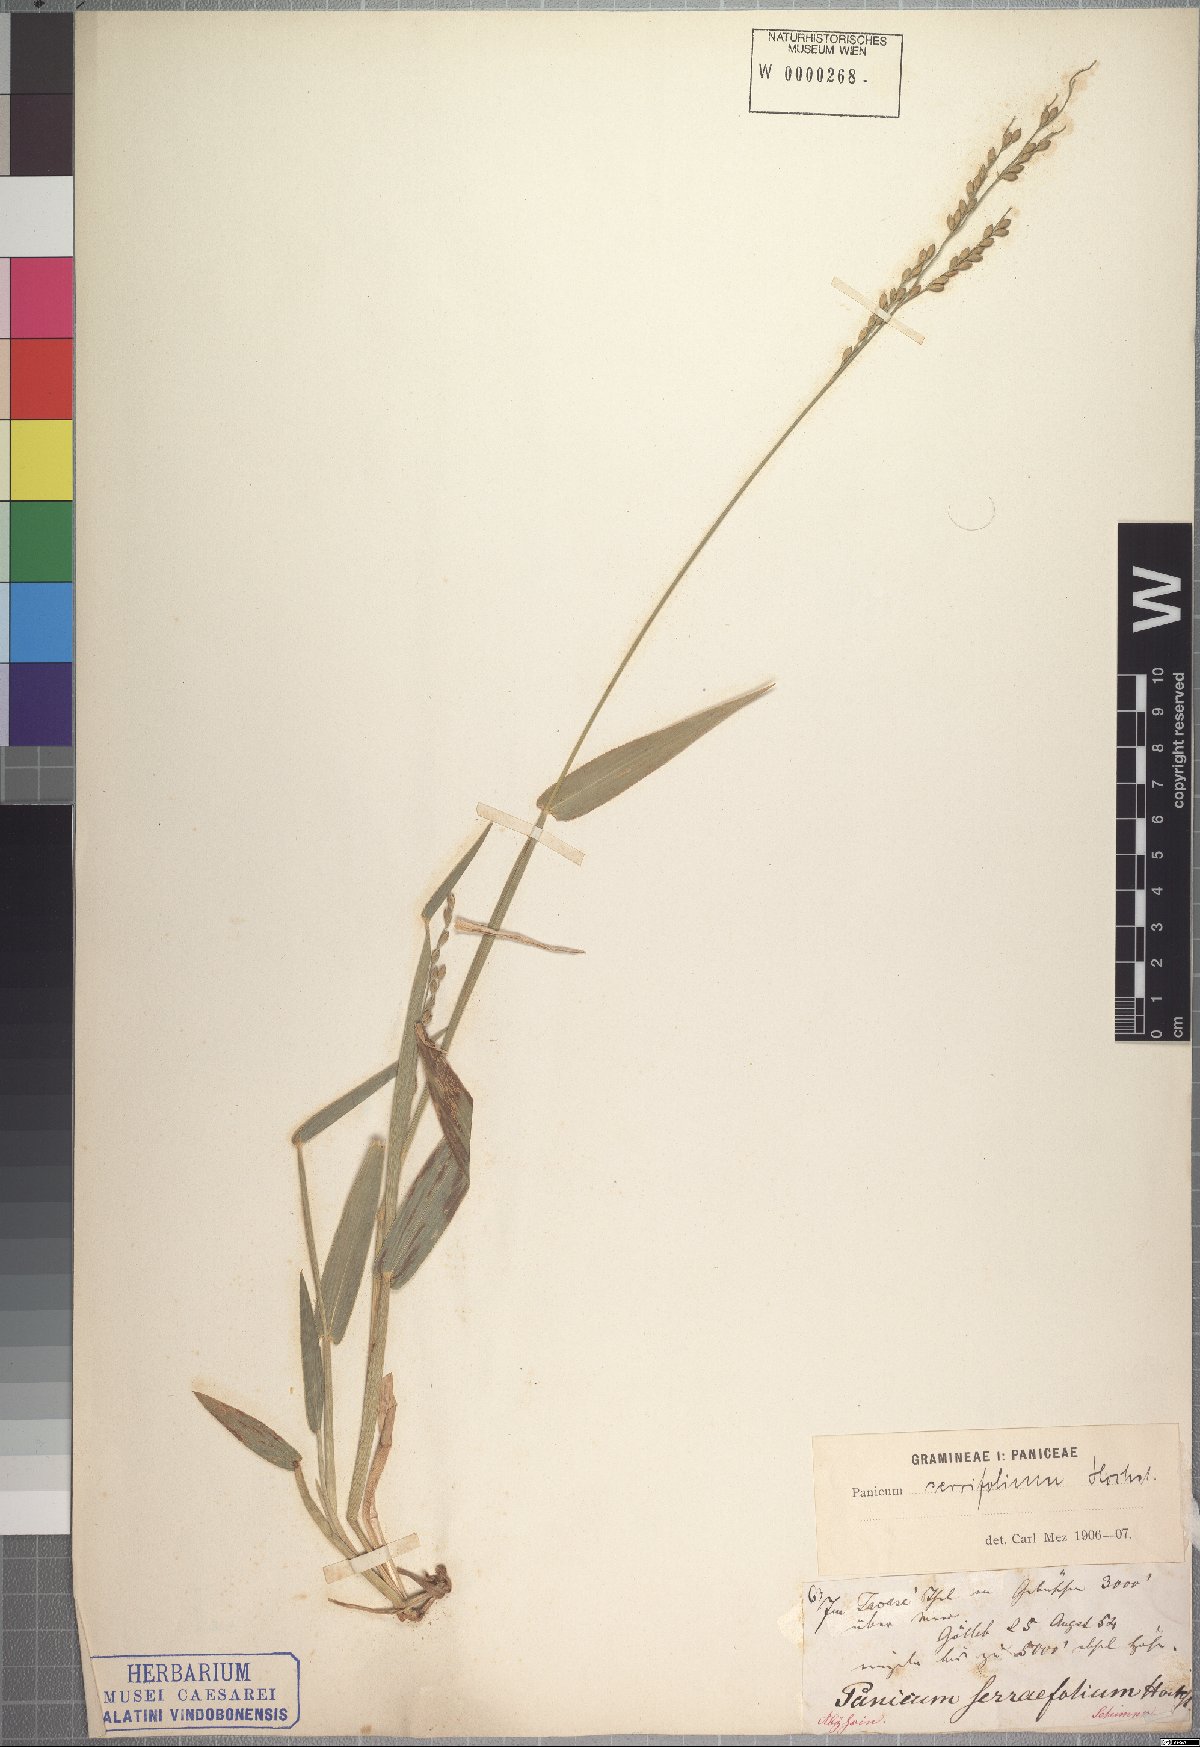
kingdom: Plantae
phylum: Tracheophyta
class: Liliopsida
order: Poales
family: Poaceae
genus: Urochloa
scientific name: Urochloa serrifolia
